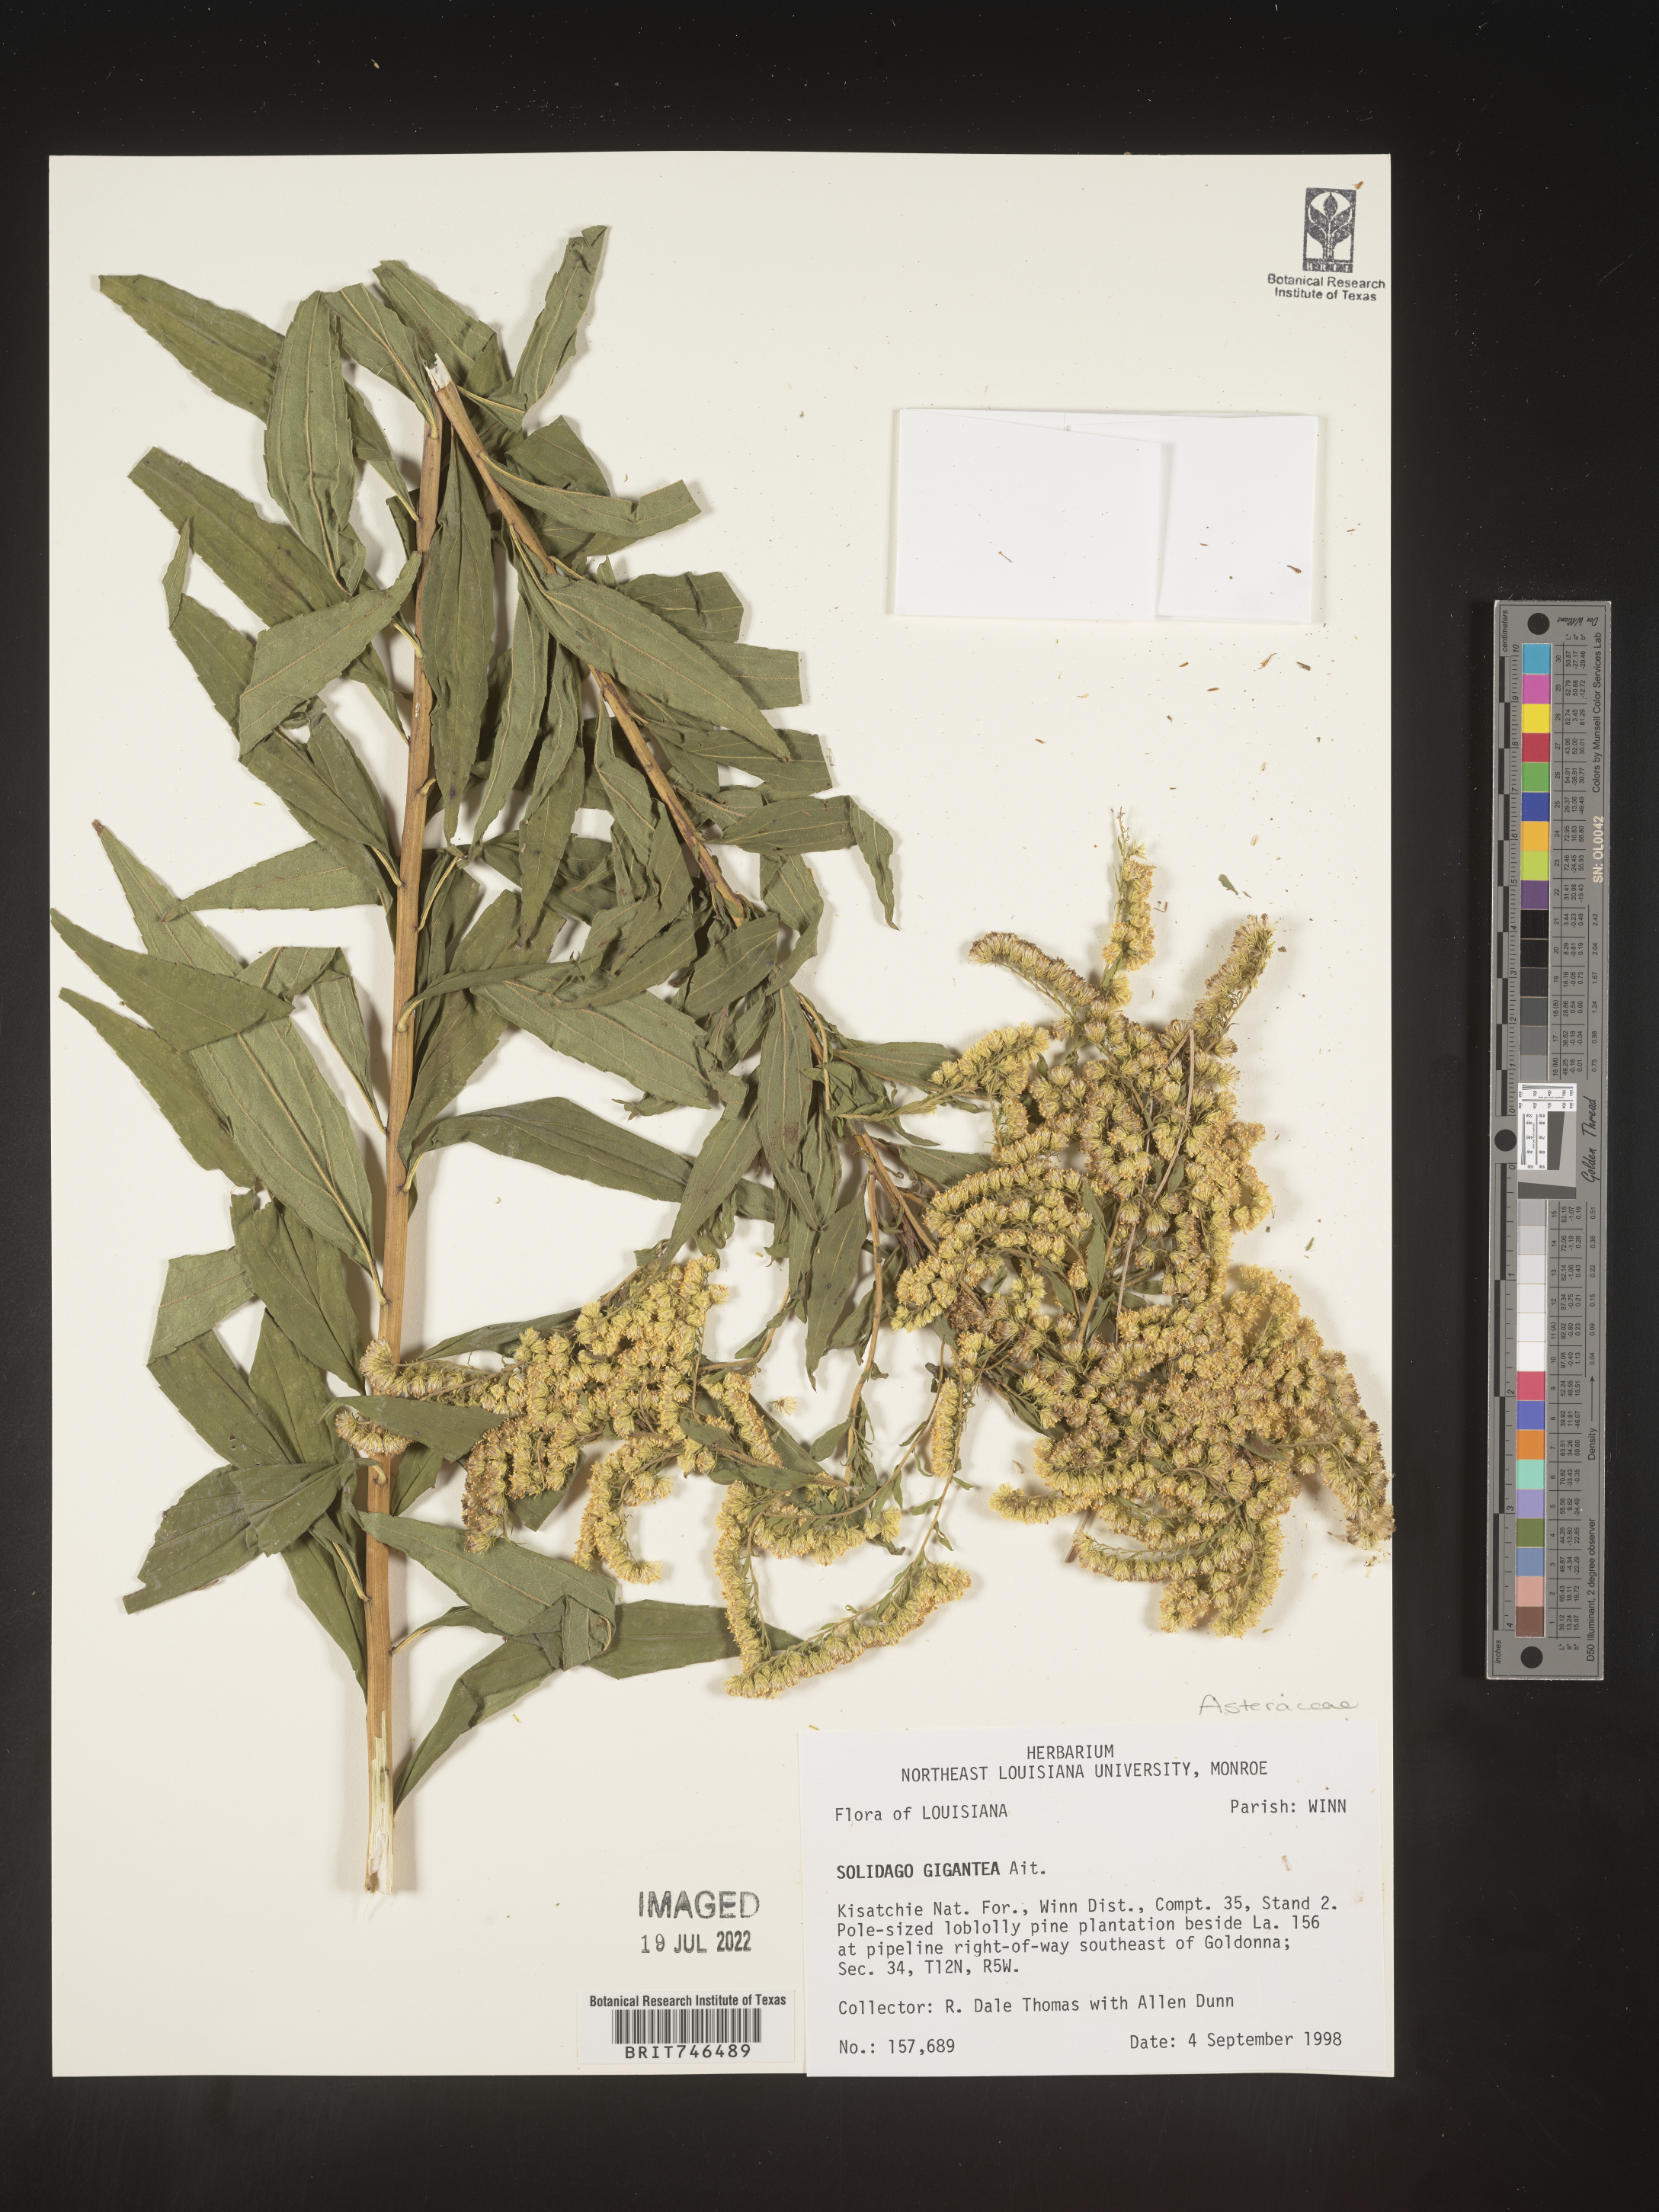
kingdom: Plantae
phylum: Tracheophyta
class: Magnoliopsida
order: Asterales
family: Asteraceae
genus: Solidago
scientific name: Solidago gigantea
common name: Giant goldenrod
